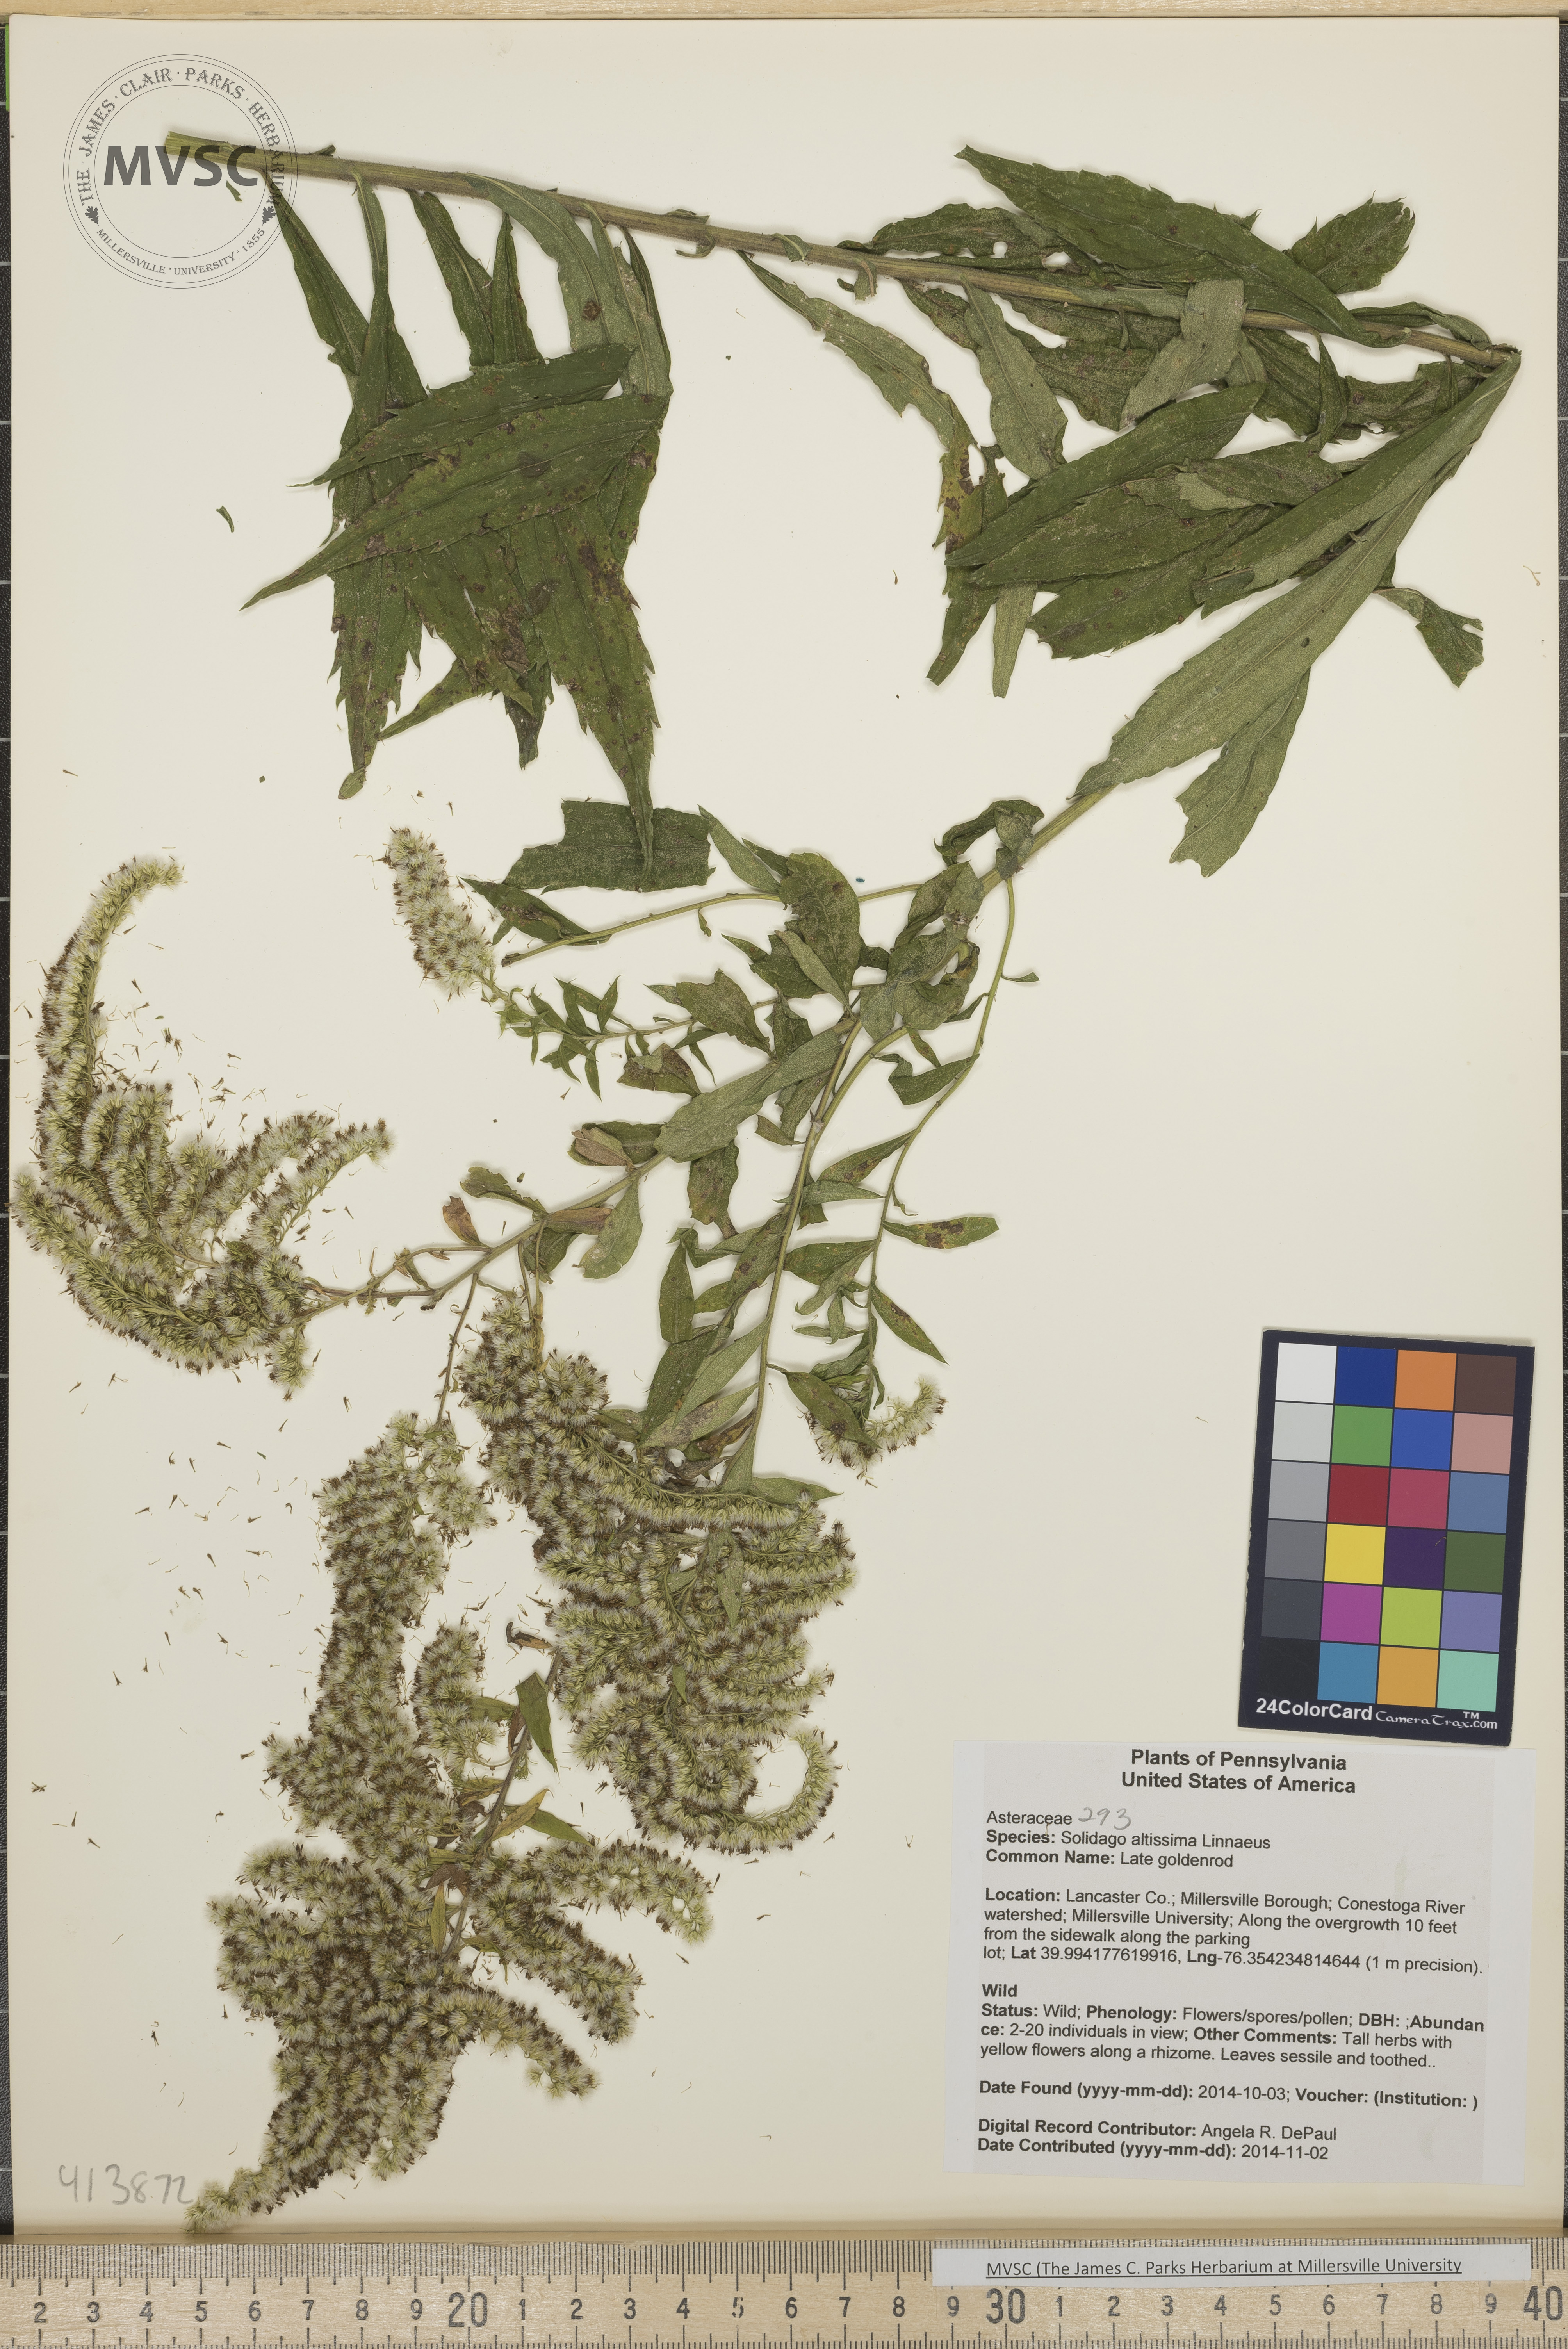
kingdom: Plantae
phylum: Tracheophyta
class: Magnoliopsida
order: Asterales
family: Asteraceae
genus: Solidago
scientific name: Solidago canadensis
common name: Canada goldenrod
